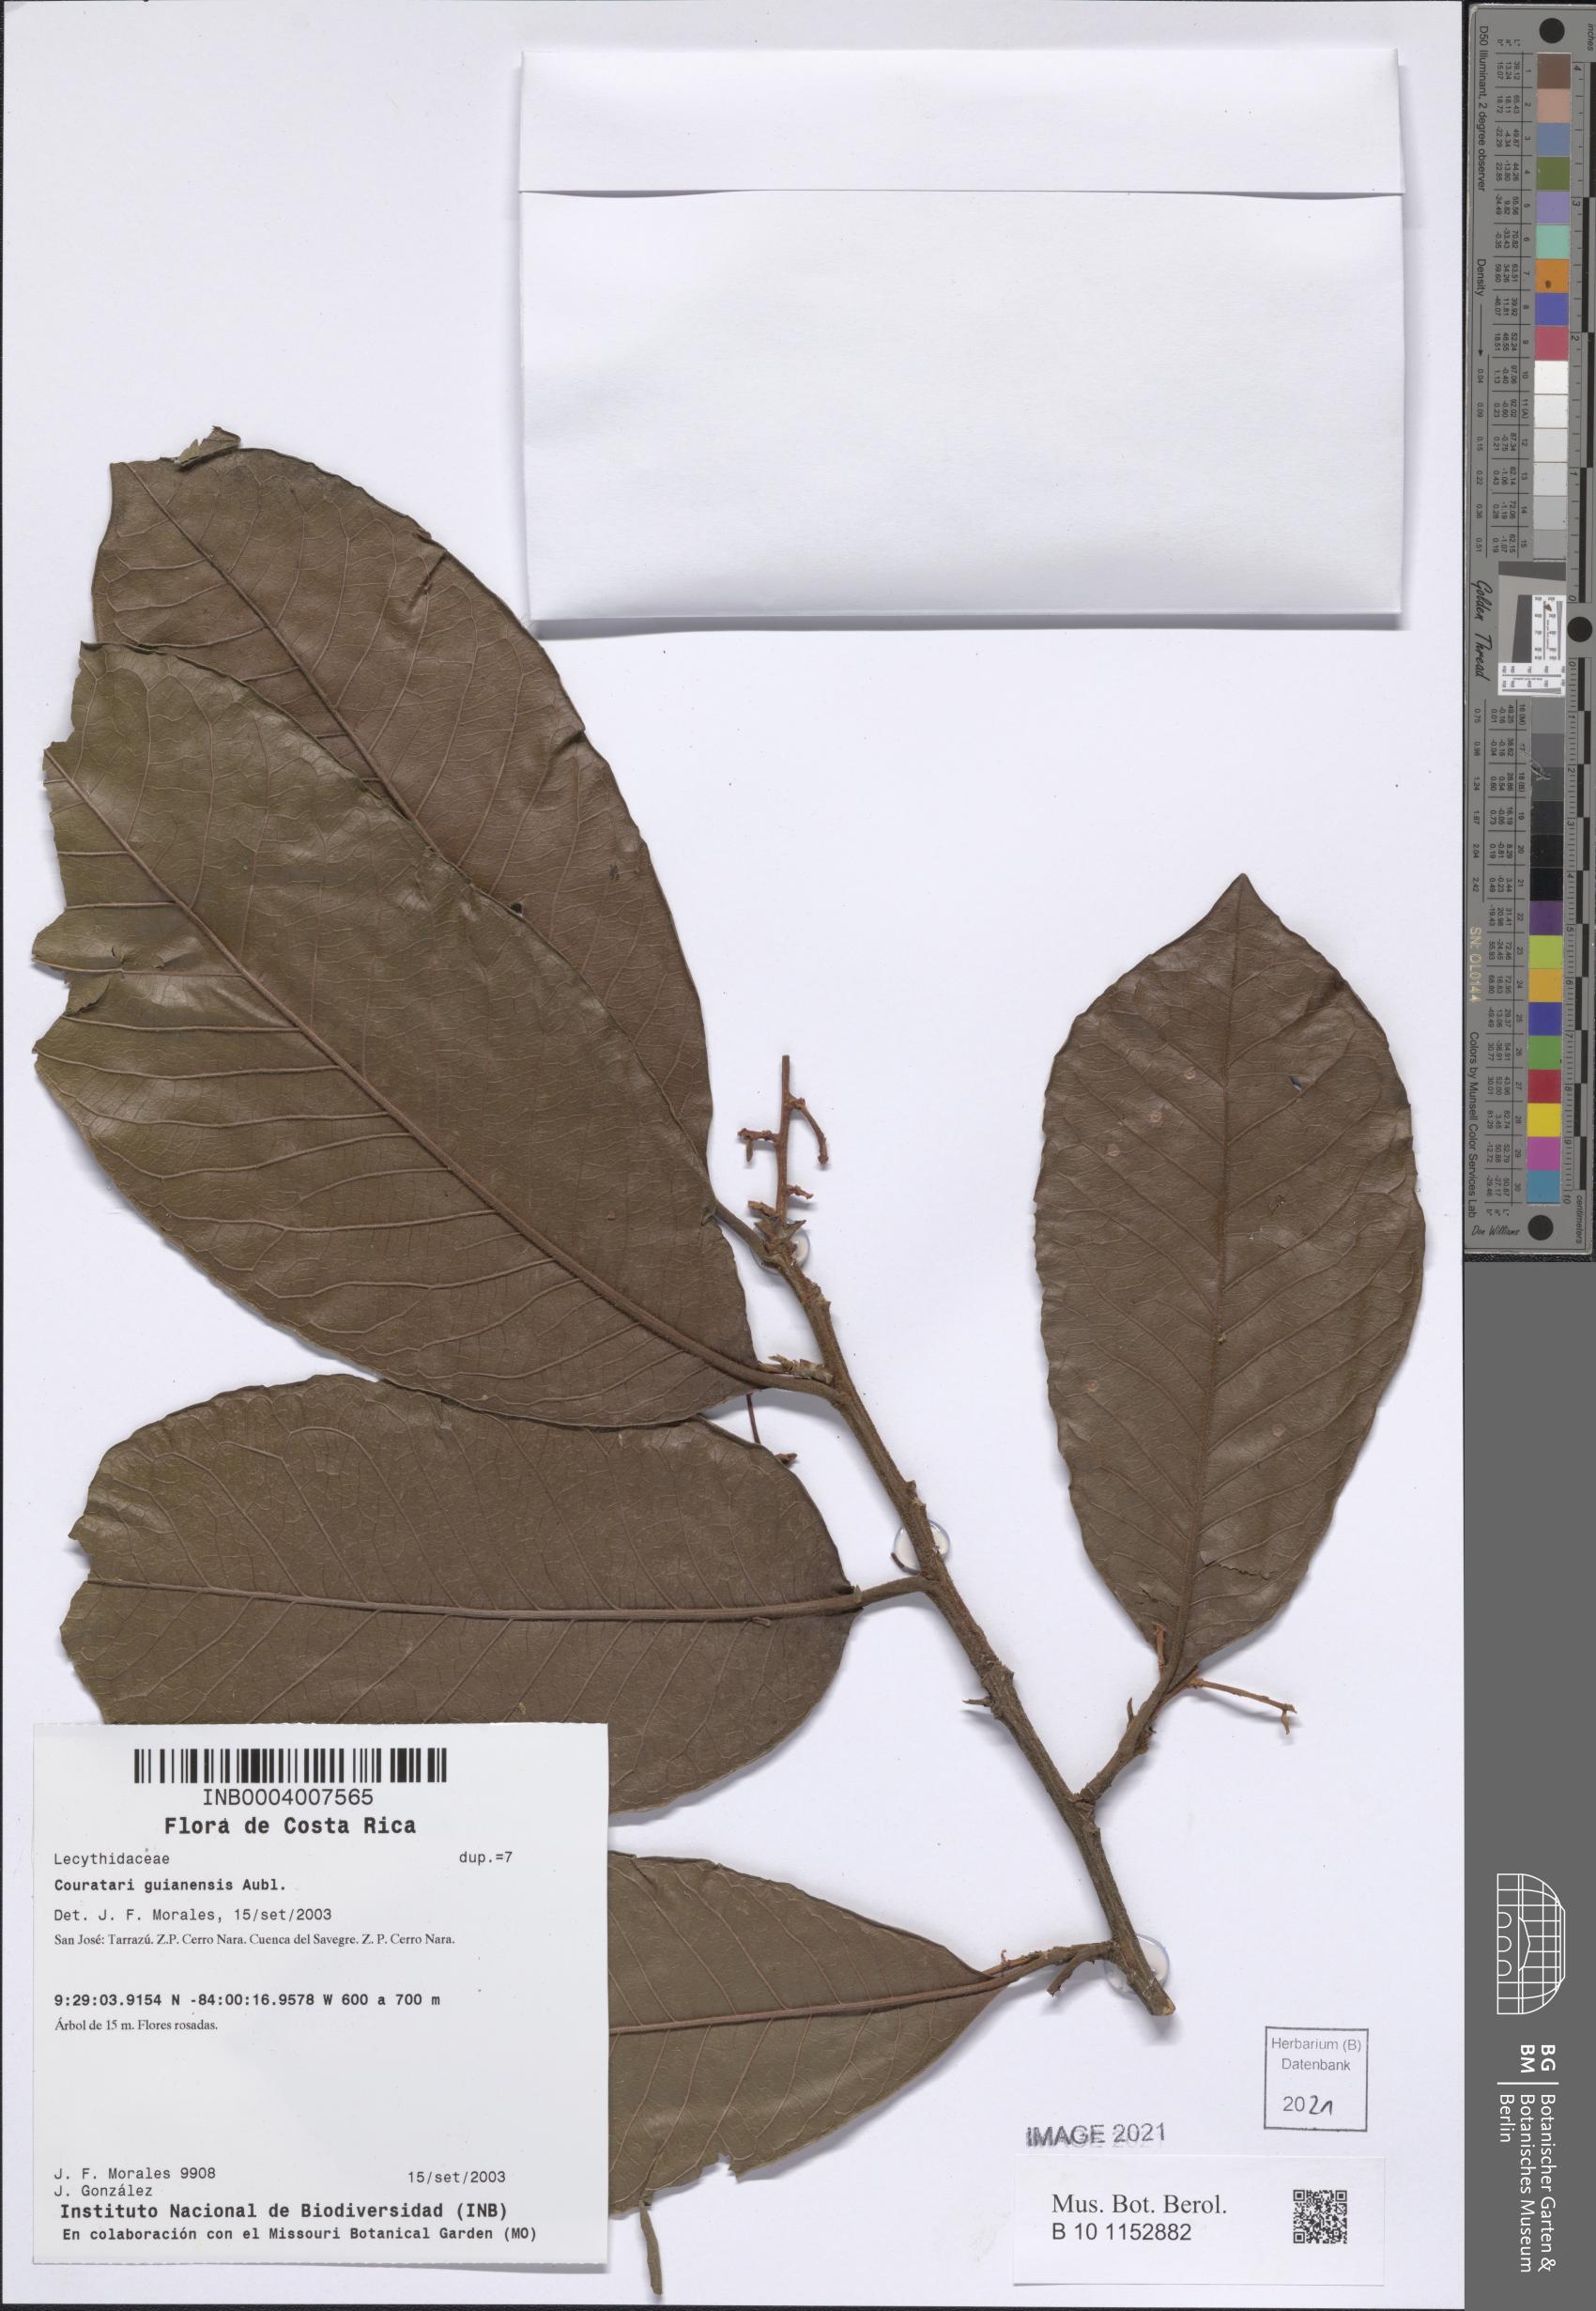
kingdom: Plantae
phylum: Tracheophyta
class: Magnoliopsida
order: Ericales
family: Lecythidaceae
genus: Couratari
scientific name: Couratari guianensis
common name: Fine-leaf wadara
